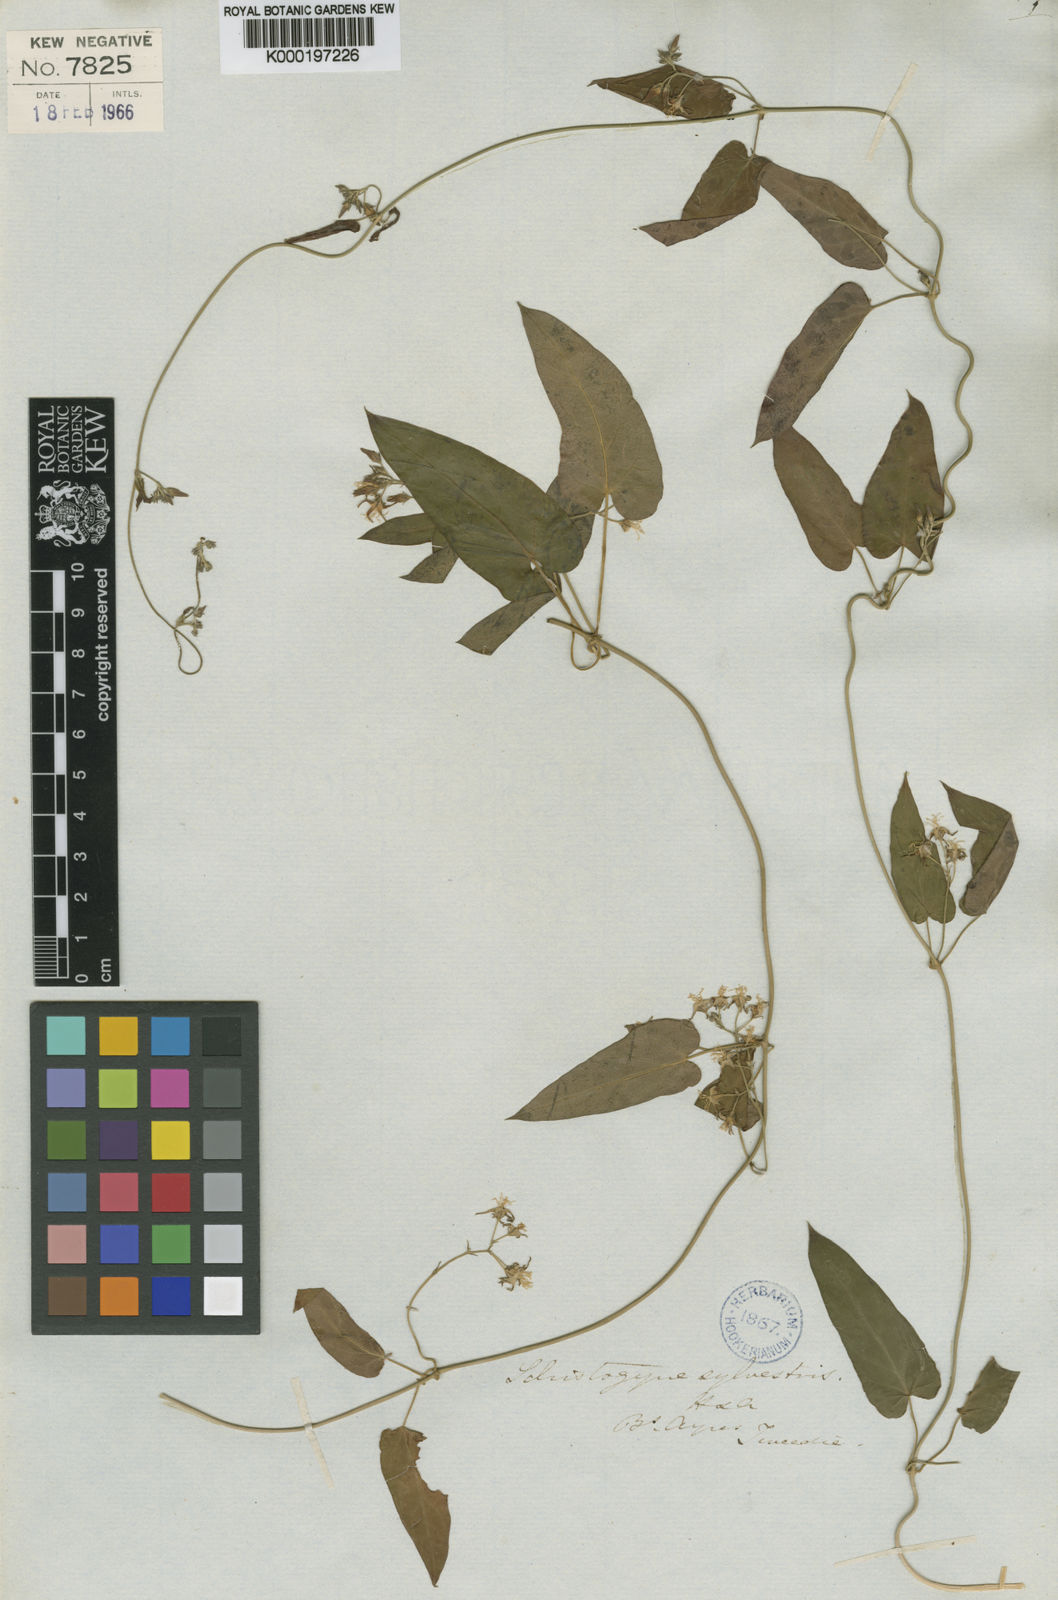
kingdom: Plantae
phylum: Tracheophyta
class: Magnoliopsida
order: Gentianales
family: Apocynaceae
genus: Oxypetalum
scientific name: Oxypetalum sylvestre
